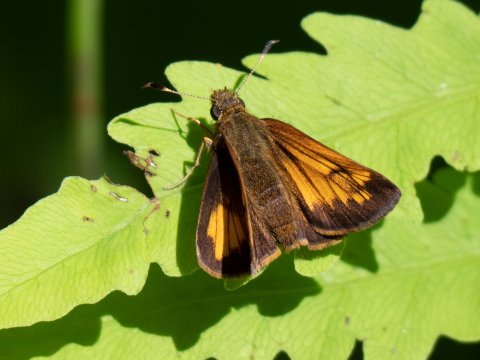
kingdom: Animalia
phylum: Arthropoda
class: Insecta
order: Lepidoptera
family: Hesperiidae
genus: Lon
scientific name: Lon hobomok
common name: Hobomok Skipper
